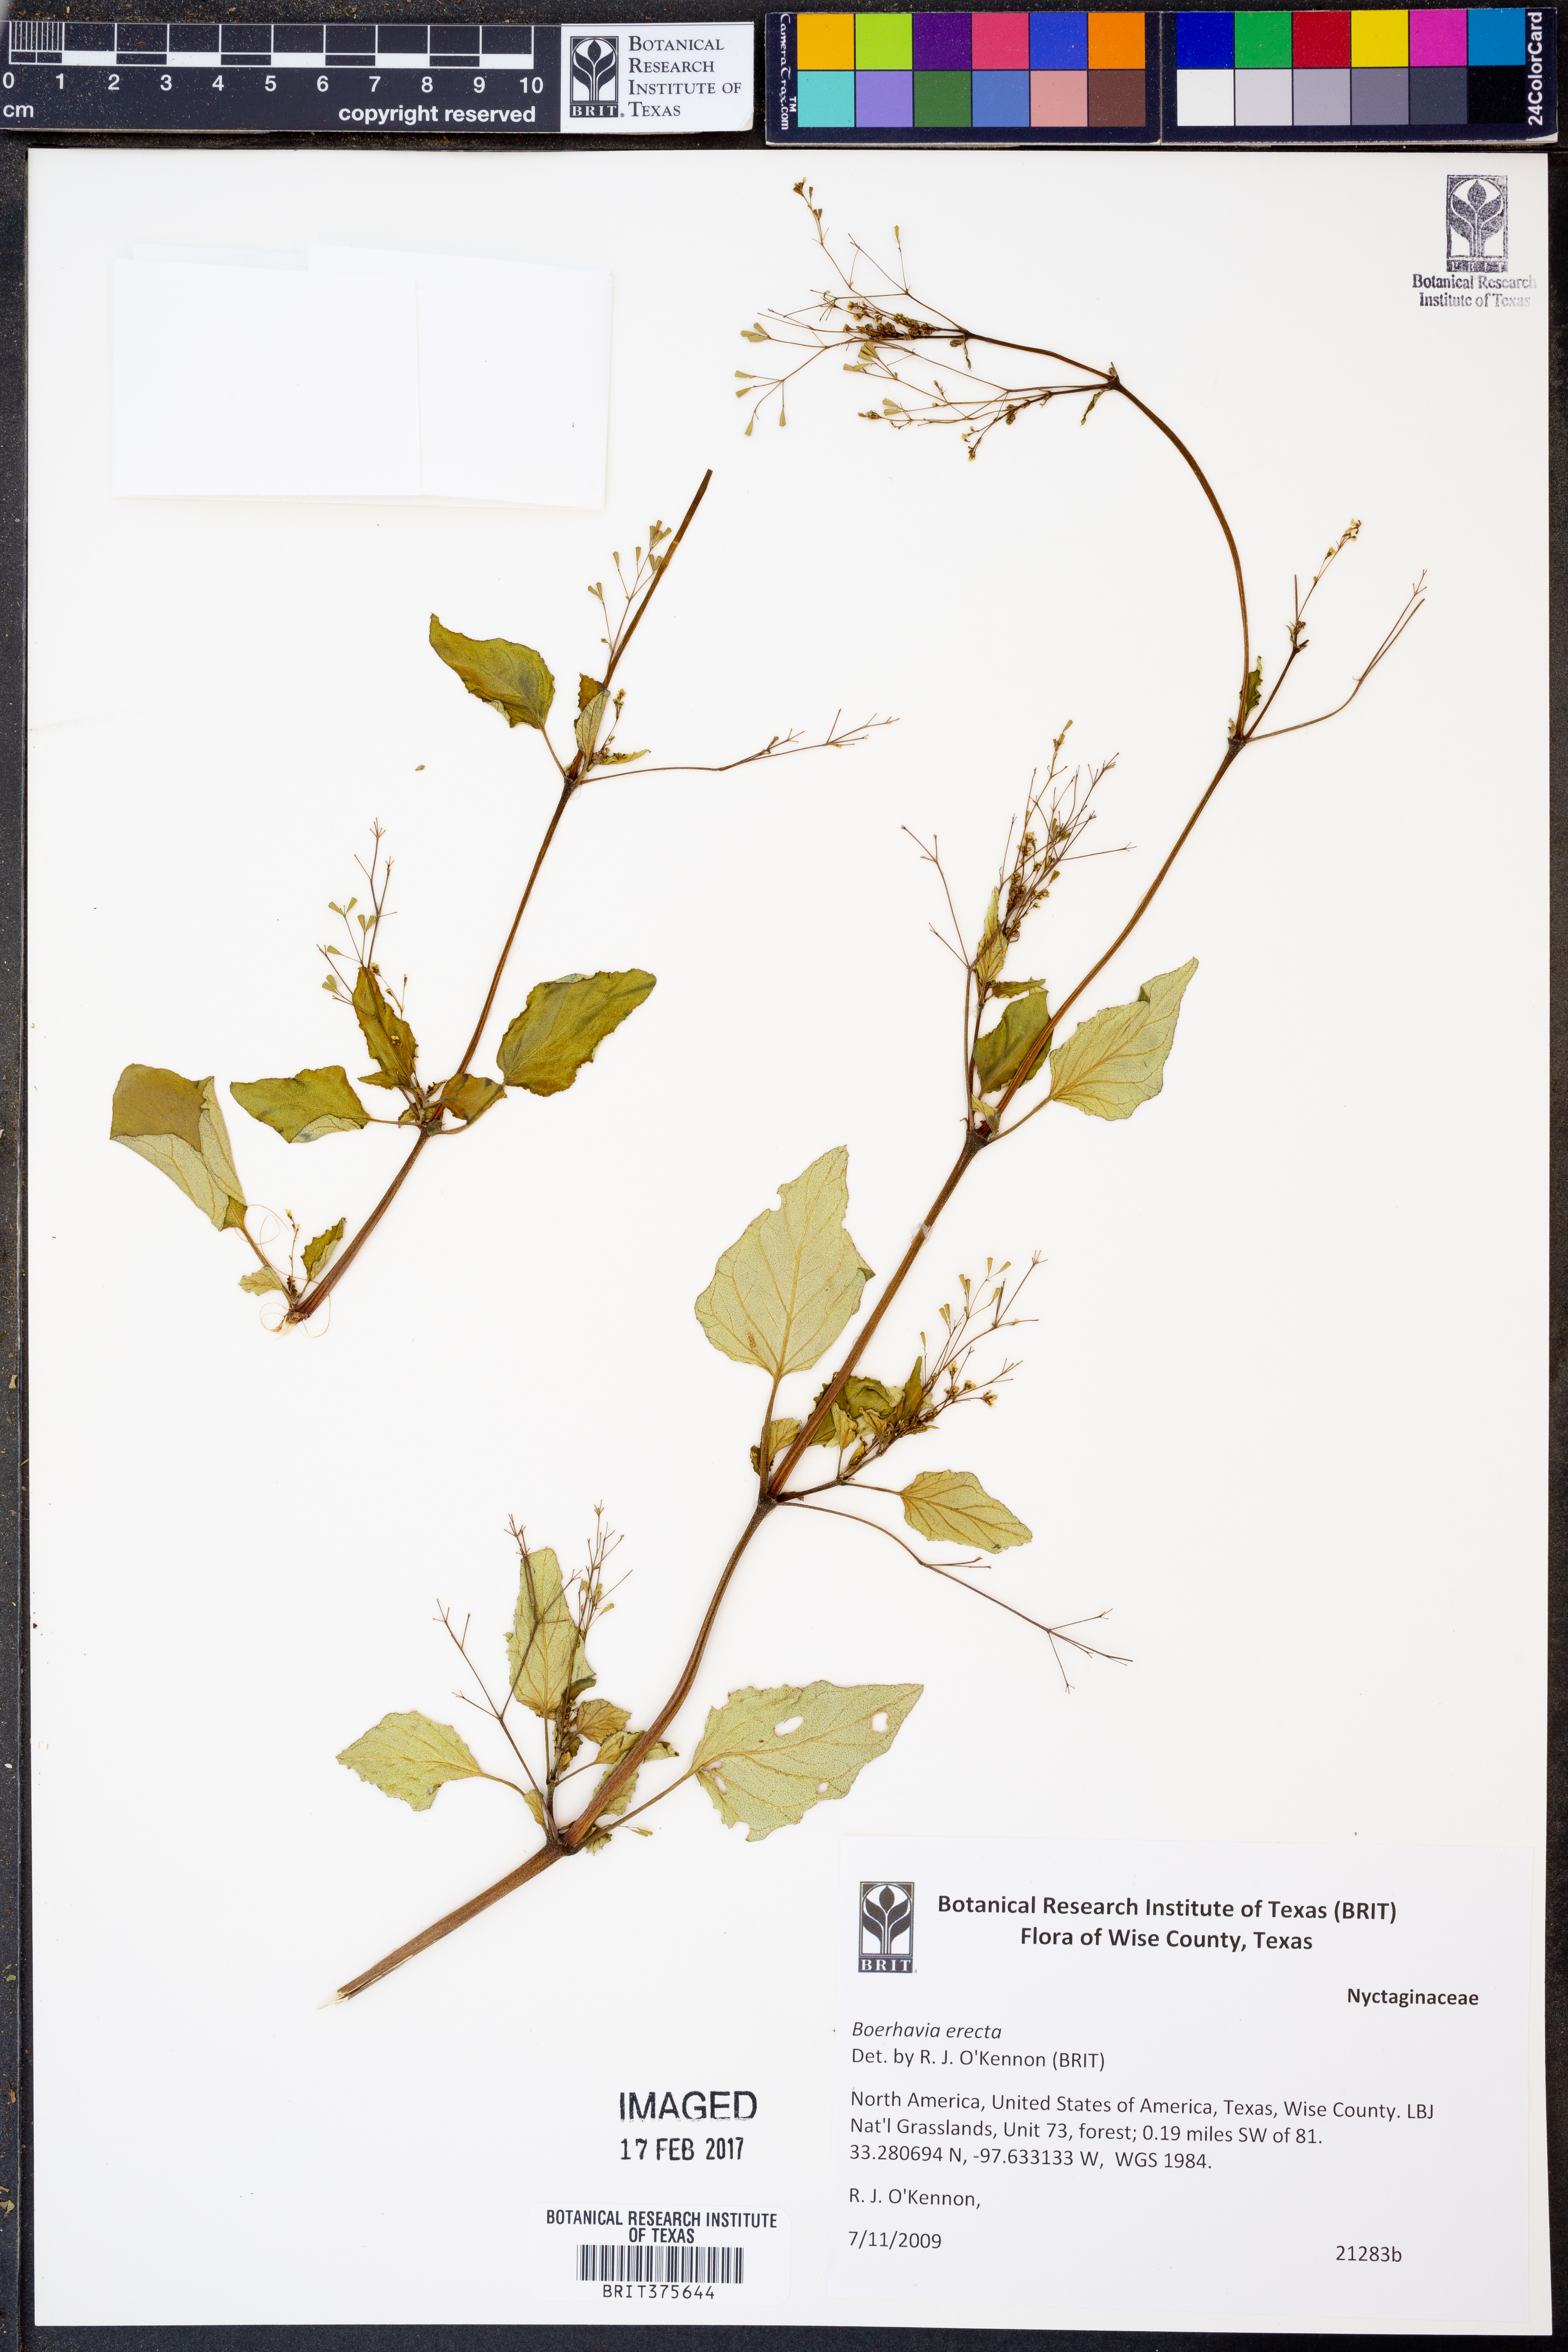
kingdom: Plantae
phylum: Tracheophyta
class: Magnoliopsida
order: Caryophyllales
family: Nyctaginaceae
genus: Boerhavia
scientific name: Boerhavia erecta
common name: Erect spiderling
